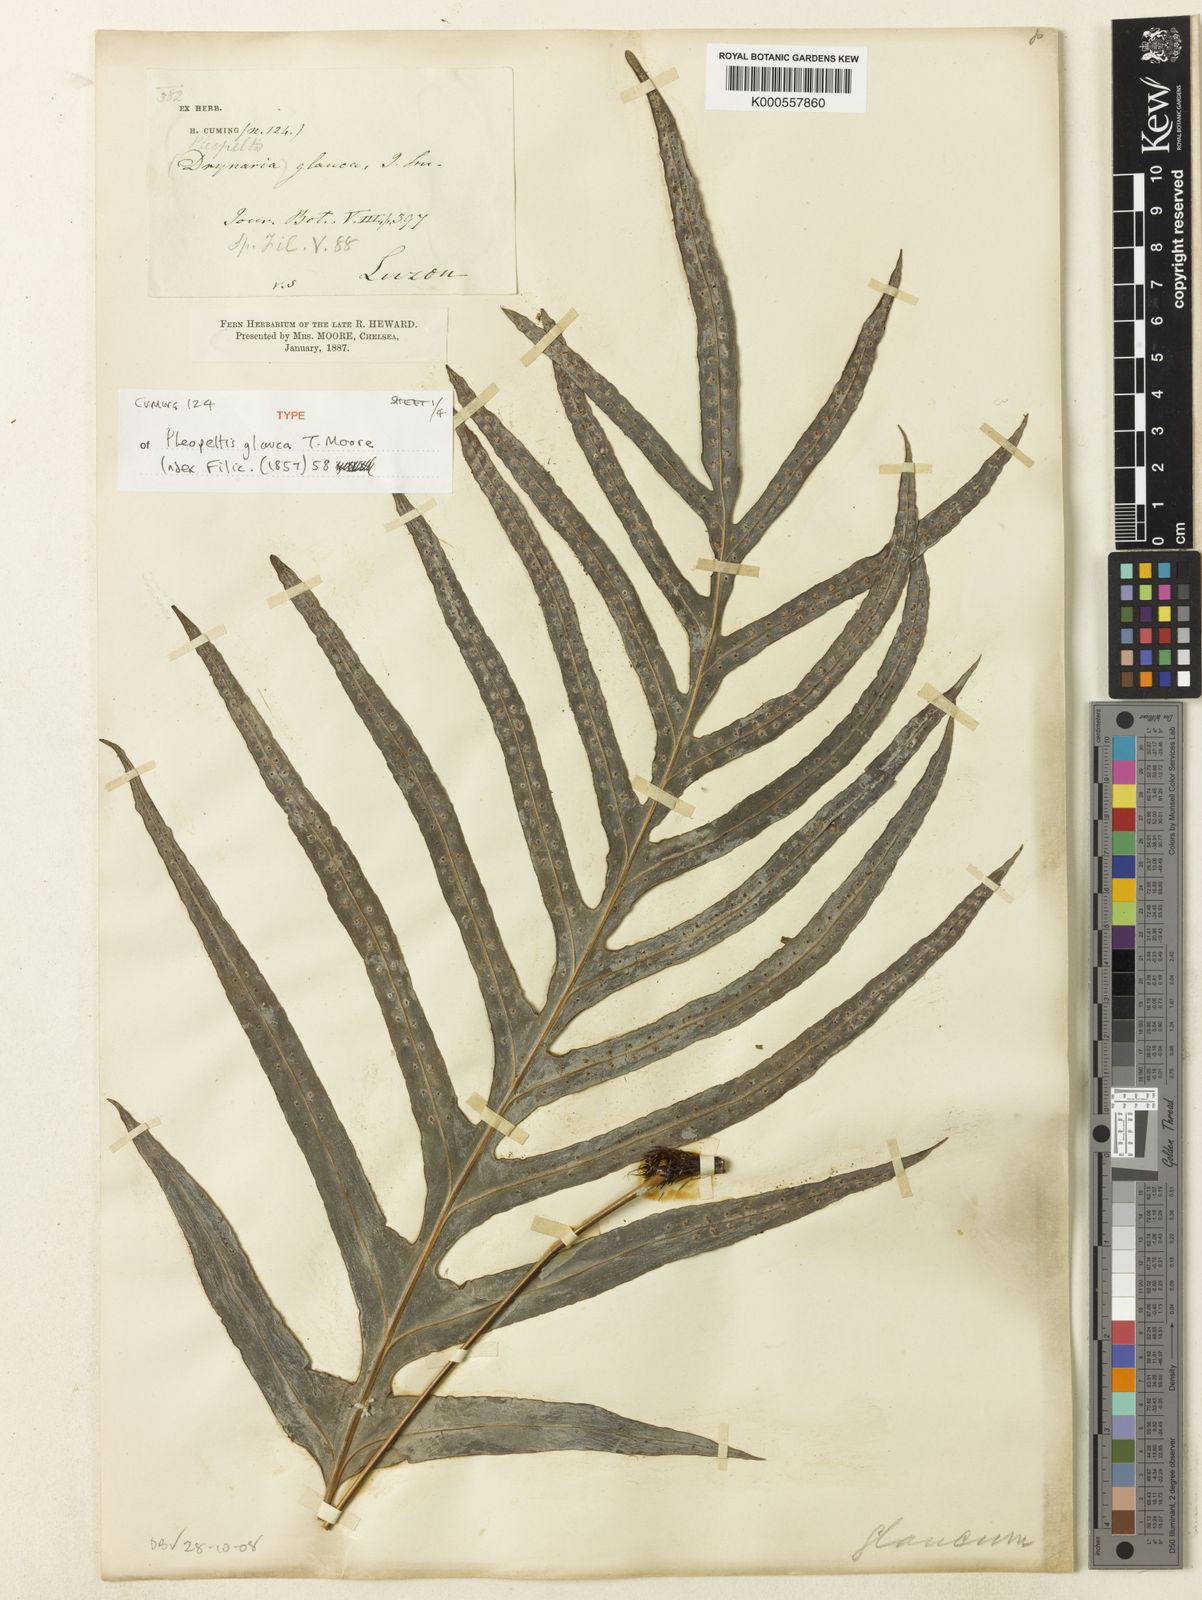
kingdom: Plantae
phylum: Tracheophyta
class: Polypodiopsida
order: Polypodiales
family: Polypodiaceae
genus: Selliguea
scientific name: Selliguea glauca
